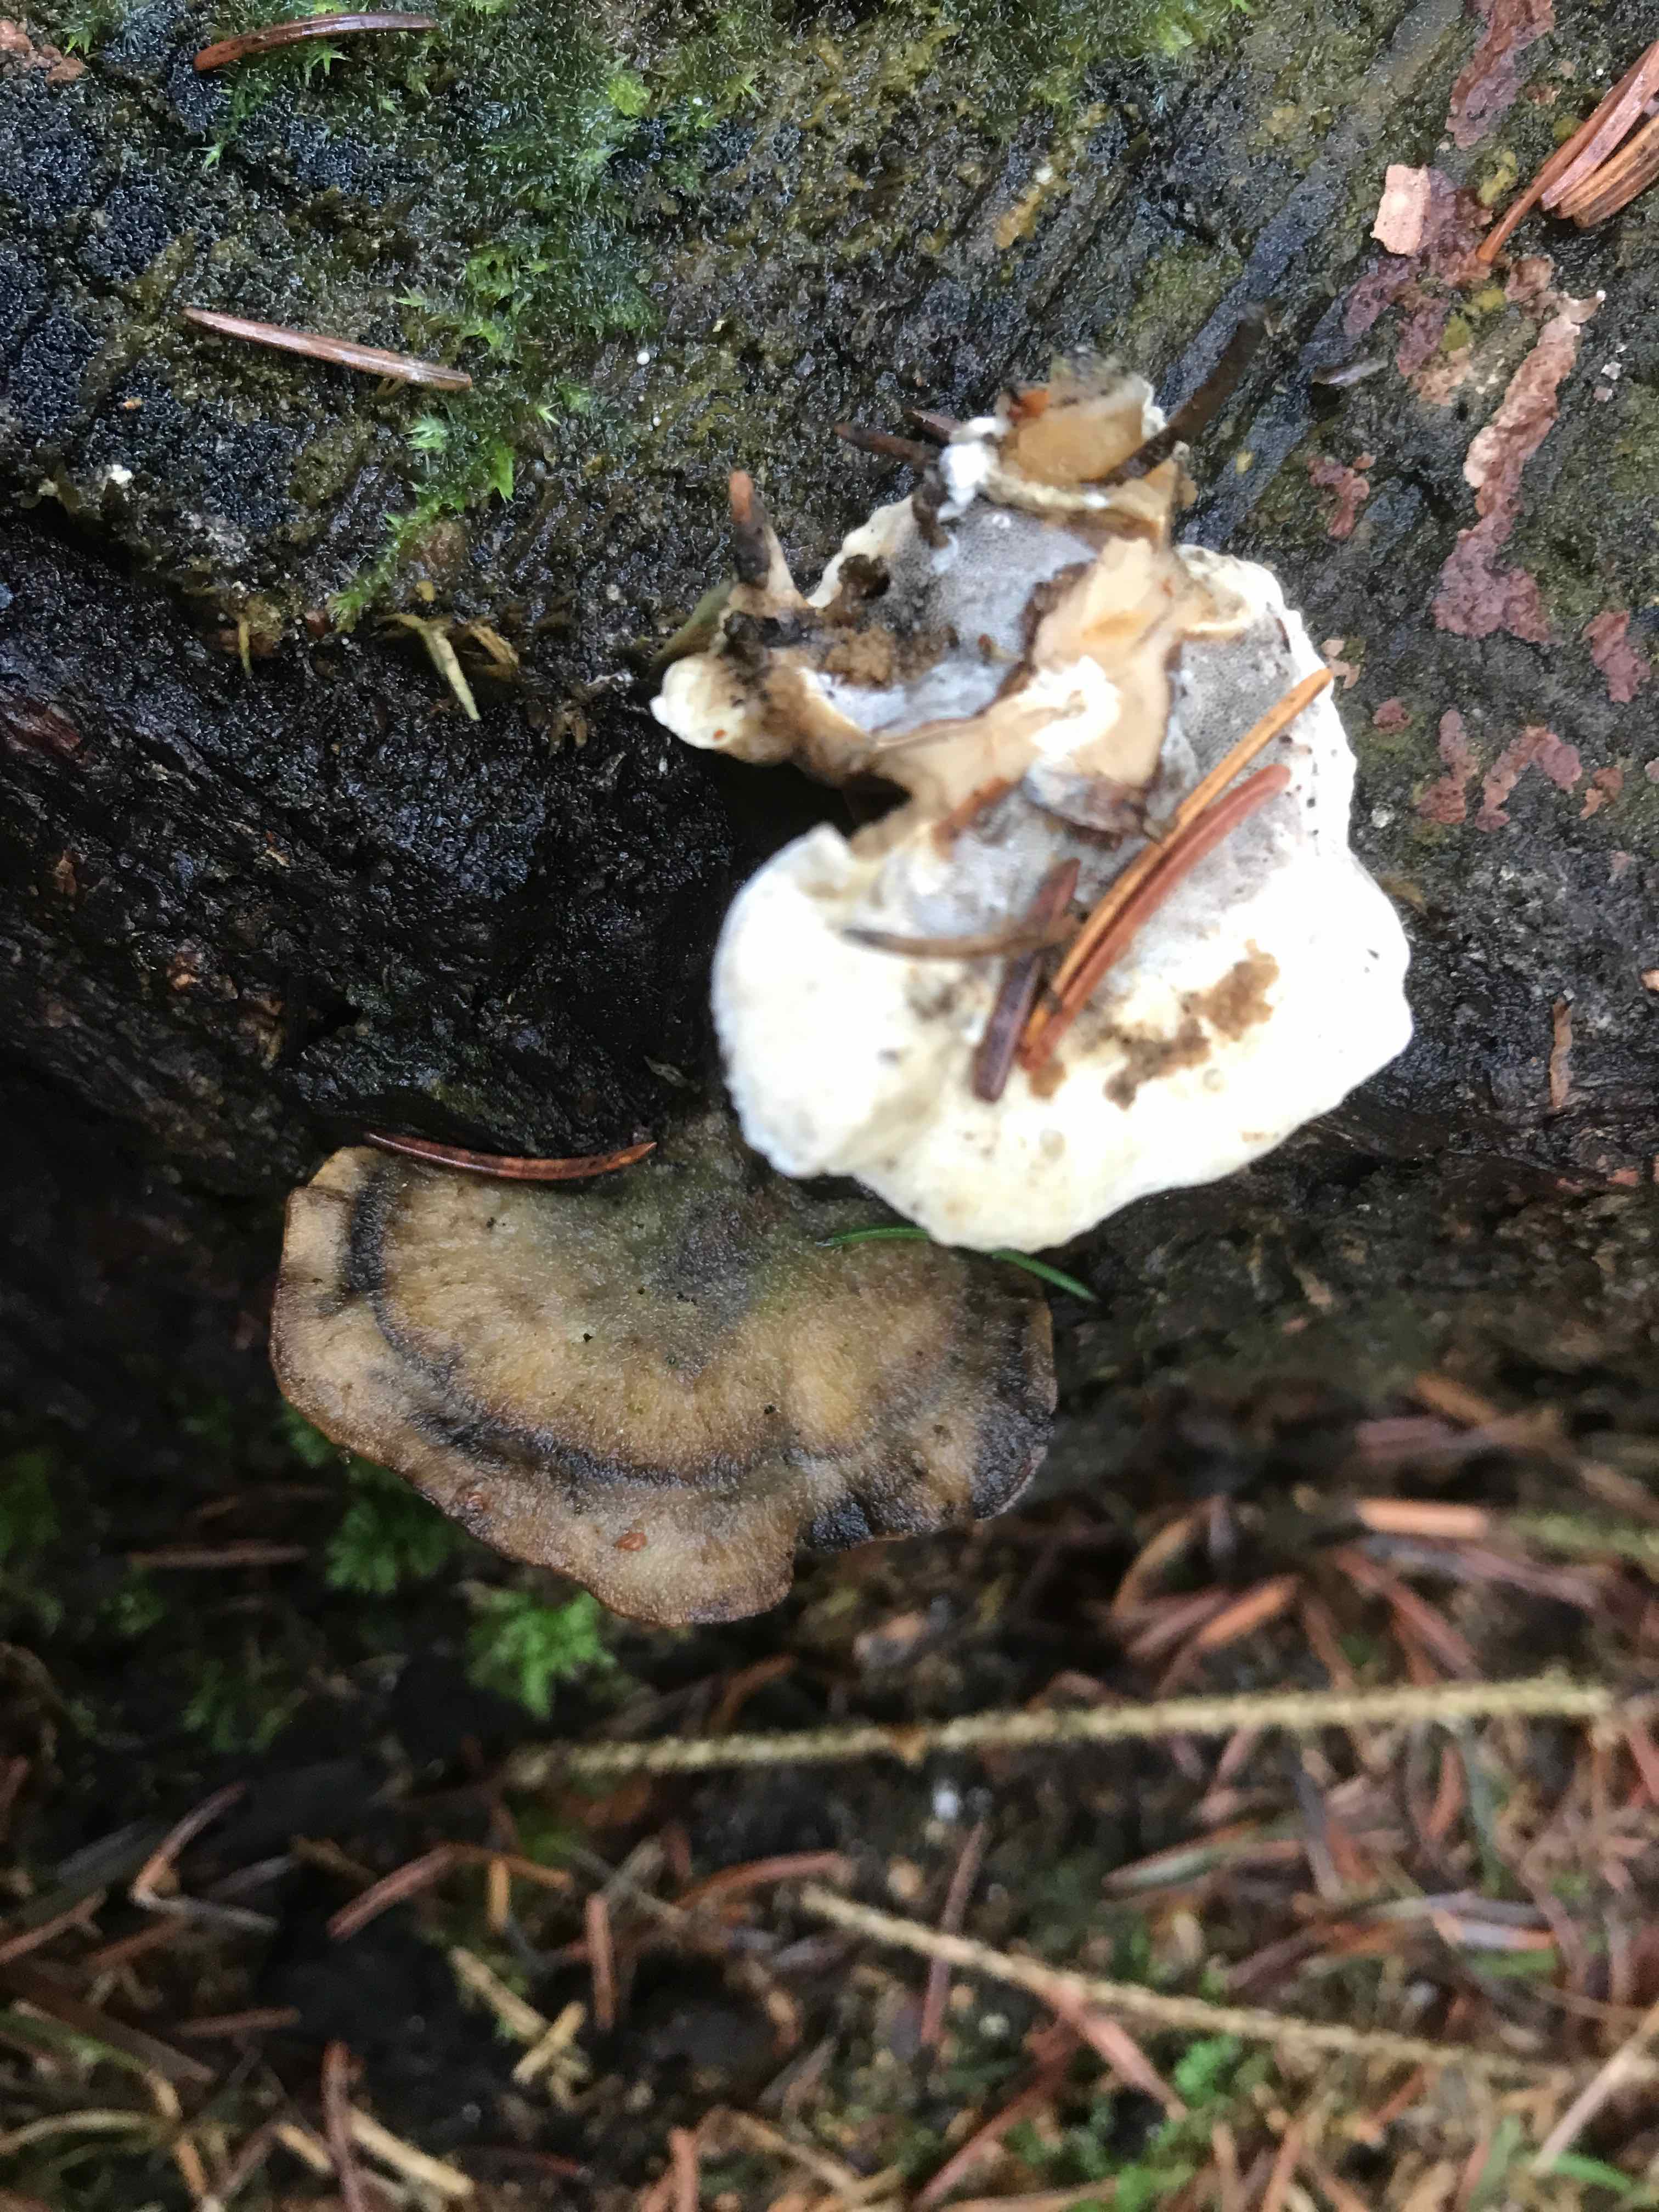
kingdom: Fungi
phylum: Basidiomycota
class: Agaricomycetes
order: Polyporales
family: Phanerochaetaceae
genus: Bjerkandera
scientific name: Bjerkandera adusta
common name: sveden sodporesvamp
